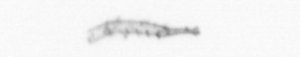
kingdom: Animalia
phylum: Arthropoda
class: Copepoda
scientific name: Copepoda
